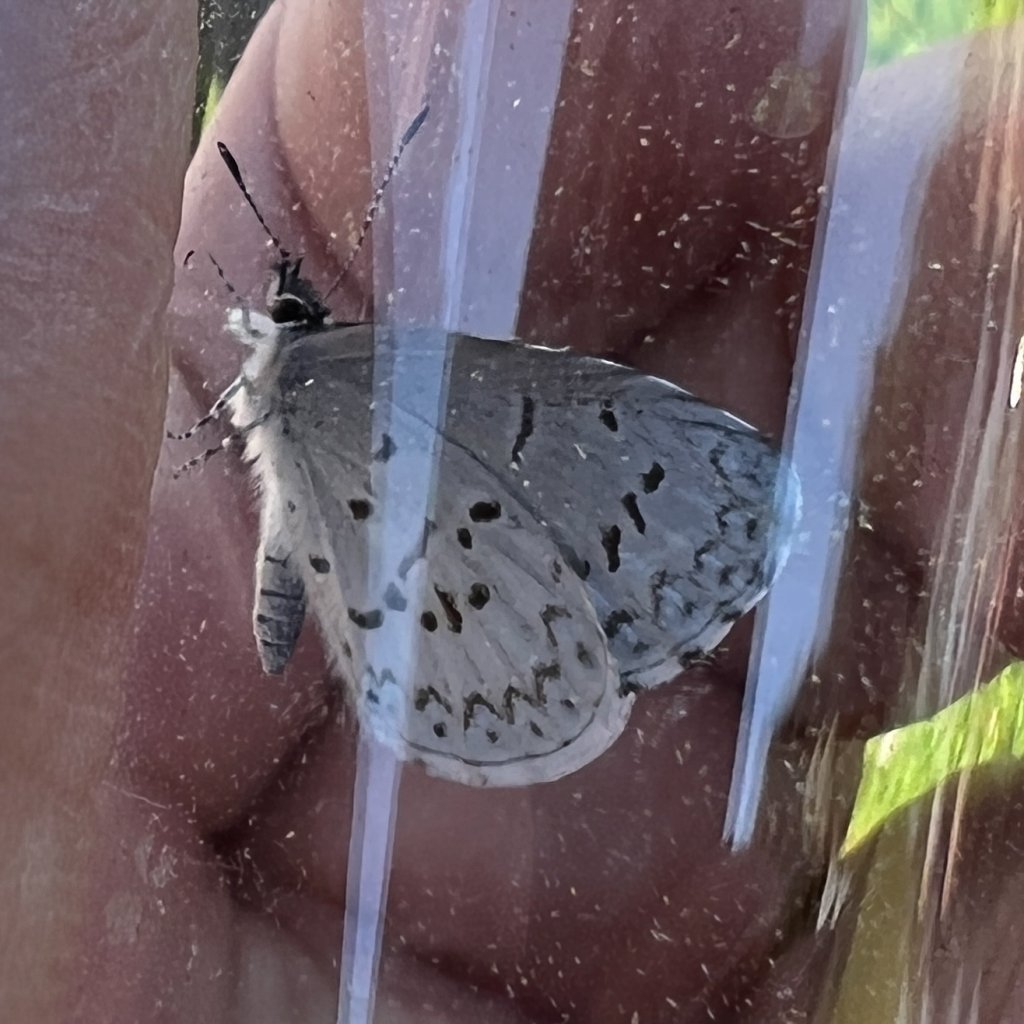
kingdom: Animalia
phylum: Arthropoda
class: Insecta
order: Lepidoptera
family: Lycaenidae
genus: Cyaniris
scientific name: Cyaniris neglecta
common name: Summer Azure
